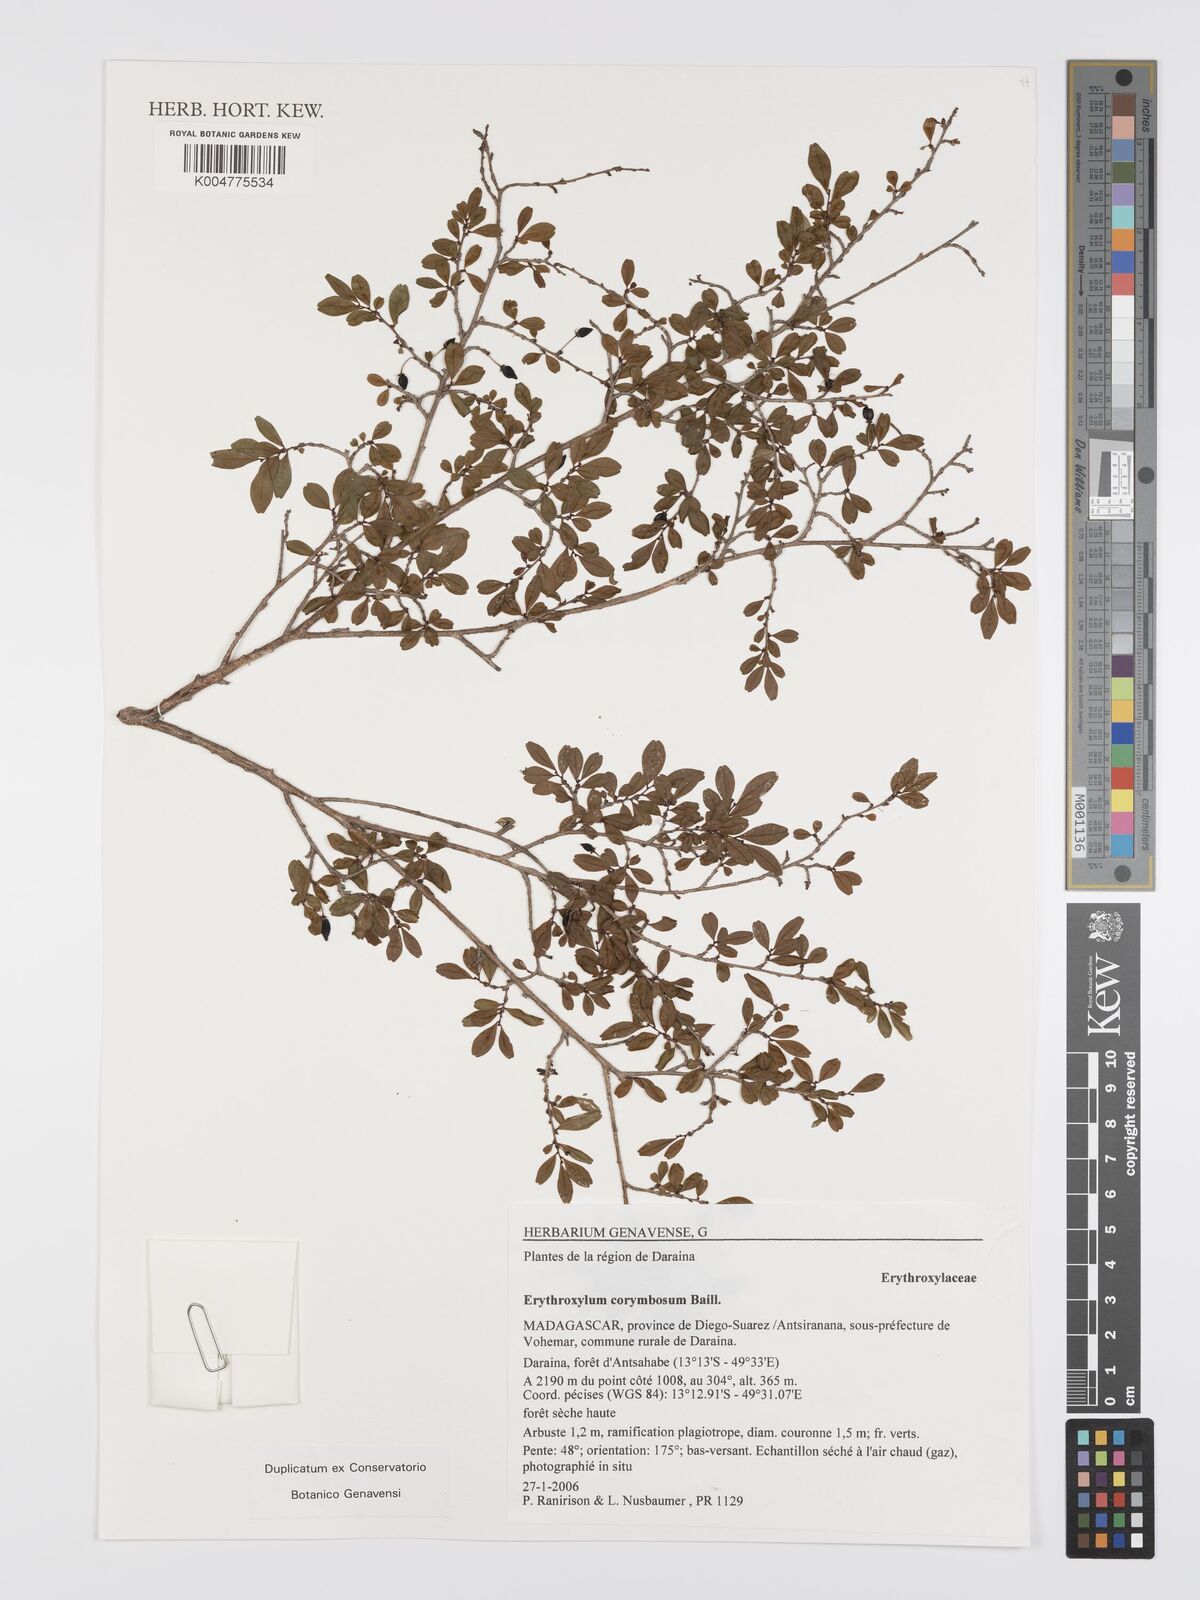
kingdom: Plantae
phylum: Tracheophyta
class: Magnoliopsida
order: Malpighiales
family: Erythroxylaceae
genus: Erythroxylum
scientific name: Erythroxylum corymbosum
